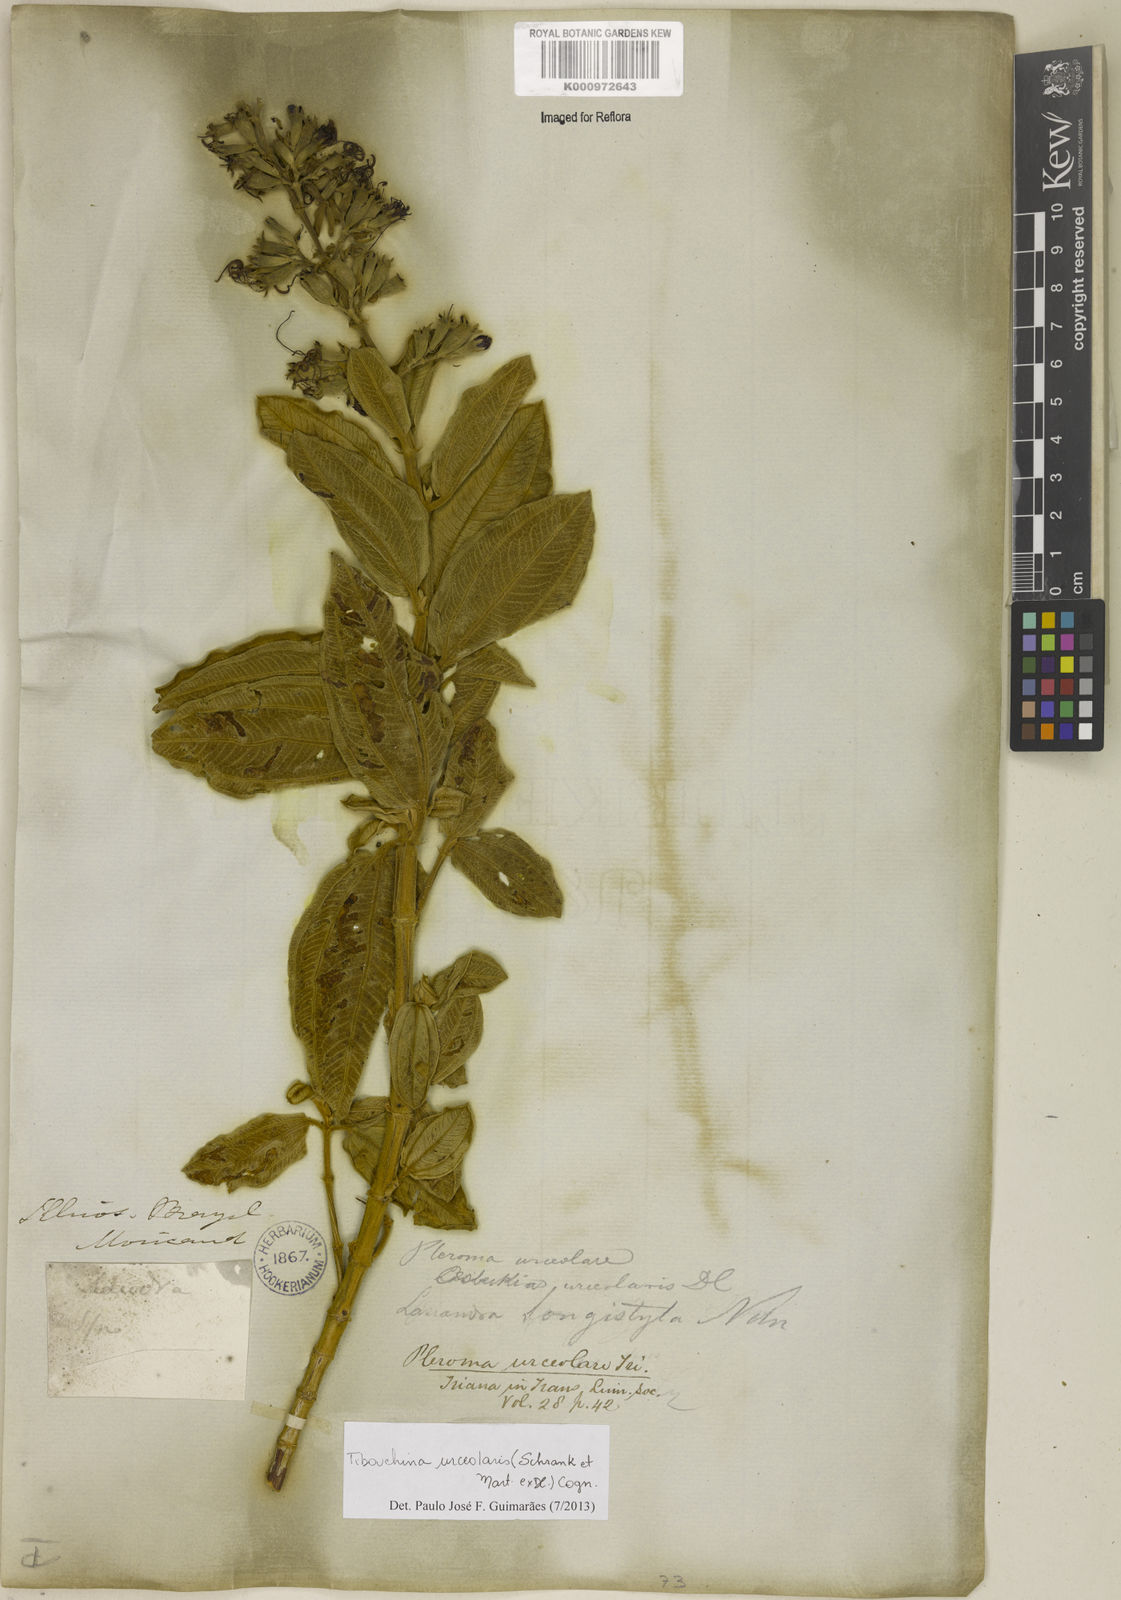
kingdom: Plantae
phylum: Tracheophyta
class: Magnoliopsida
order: Myrtales
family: Melastomataceae
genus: Pleroma
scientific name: Pleroma urceolare
